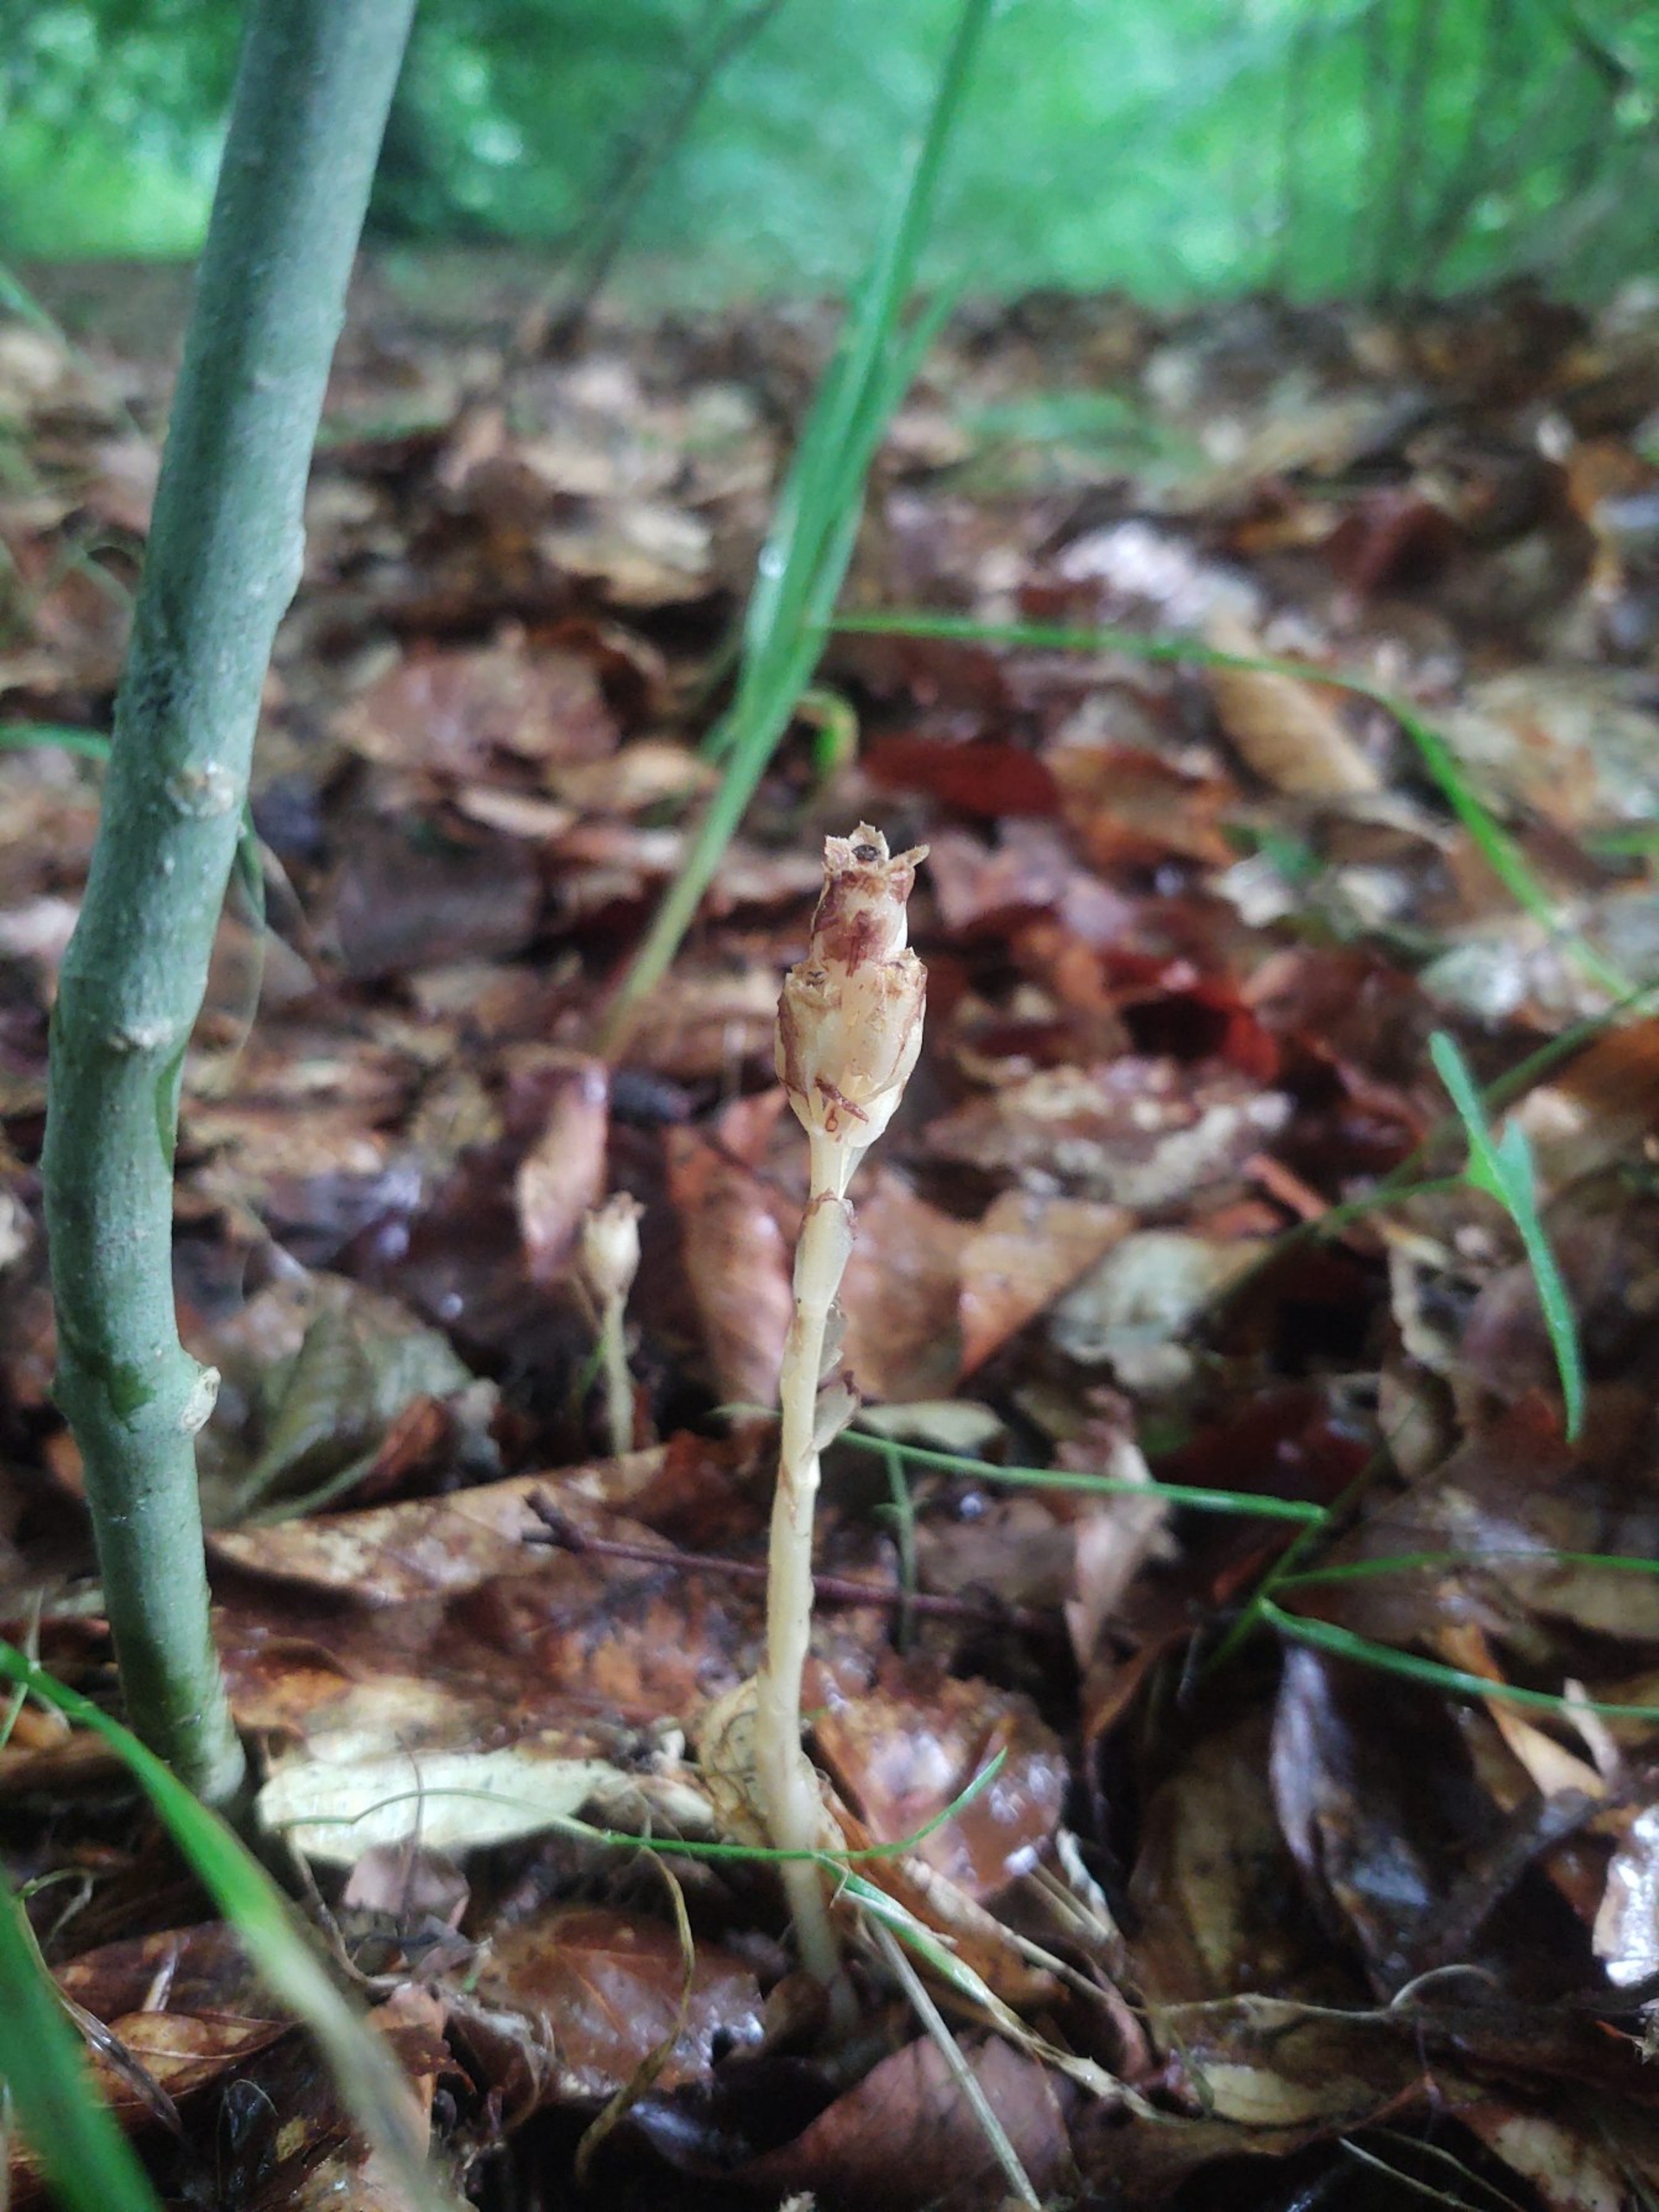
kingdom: Plantae
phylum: Tracheophyta
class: Magnoliopsida
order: Ericales
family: Ericaceae
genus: Hypopitys
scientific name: Hypopitys monotropa
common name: Snylterod
